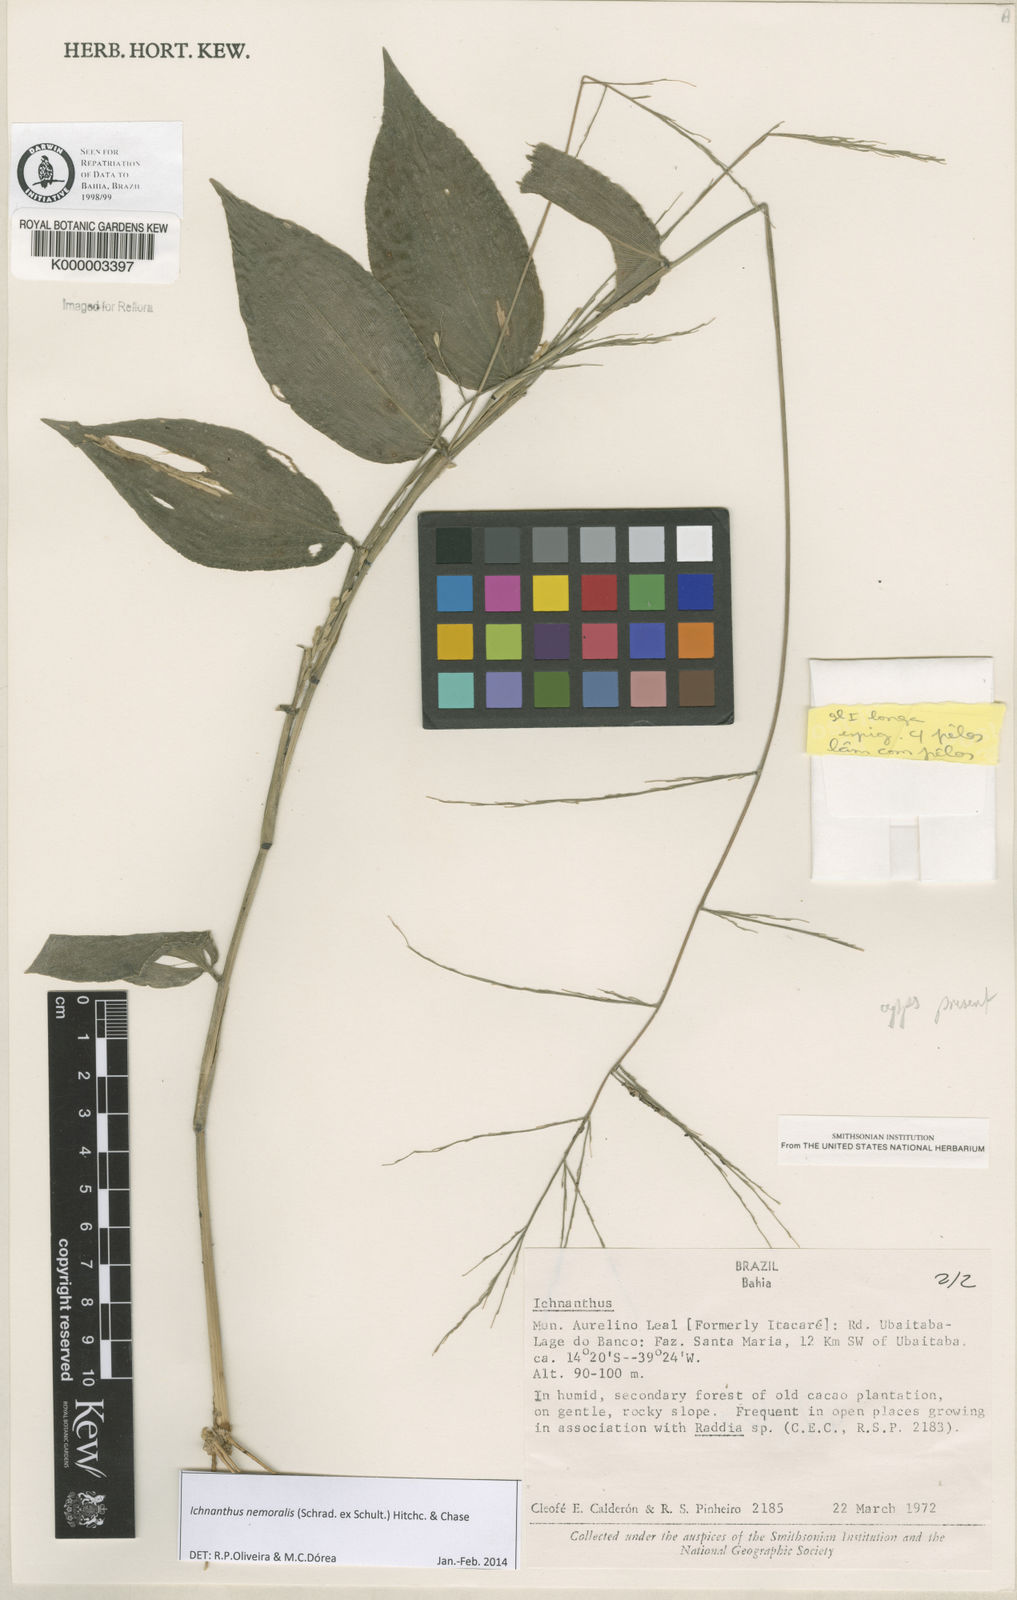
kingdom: Plantae
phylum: Tracheophyta
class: Liliopsida
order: Poales
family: Poaceae
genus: Ichnanthus
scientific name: Ichnanthus nemoralis
